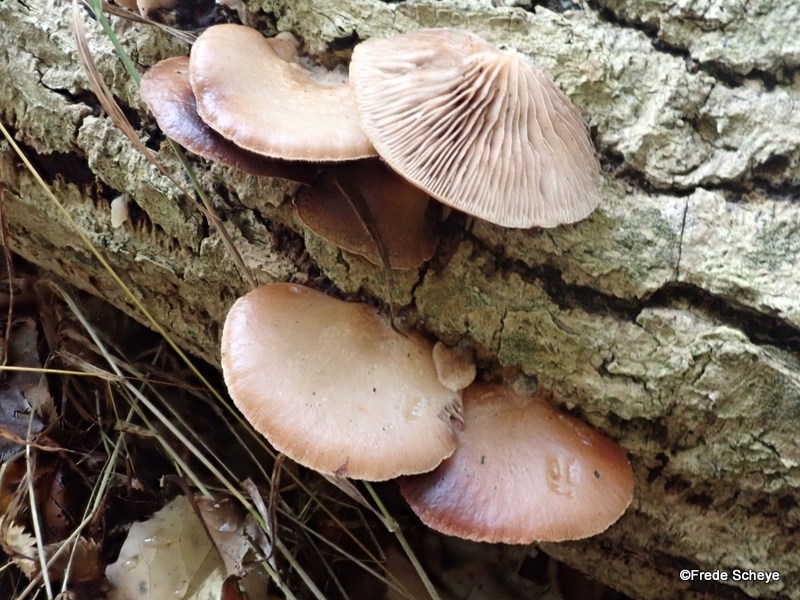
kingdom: Fungi
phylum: Basidiomycota
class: Agaricomycetes
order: Agaricales
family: Crepidotaceae
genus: Crepidotus
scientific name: Crepidotus mollis
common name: blød muslingesvamp
